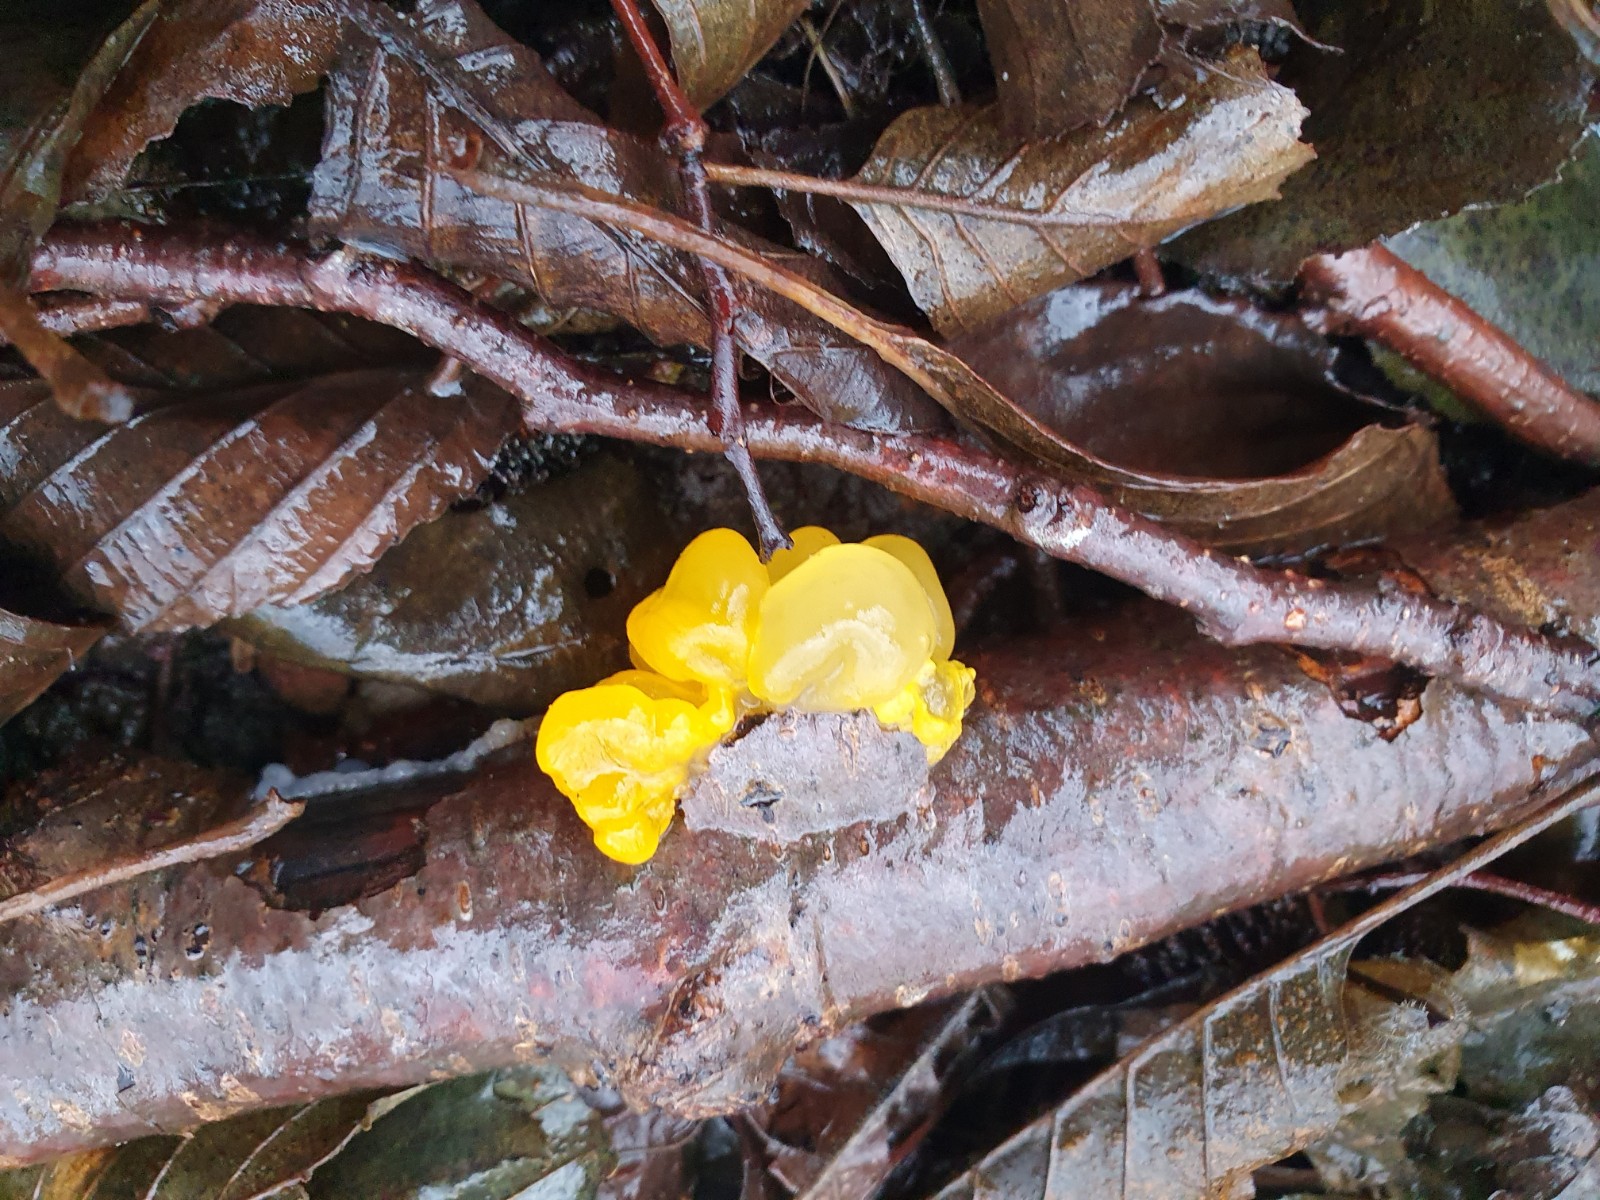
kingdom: Fungi
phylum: Basidiomycota
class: Tremellomycetes
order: Tremellales
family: Tremellaceae
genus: Tremella
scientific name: Tremella mesenterica
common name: gul bævresvamp
